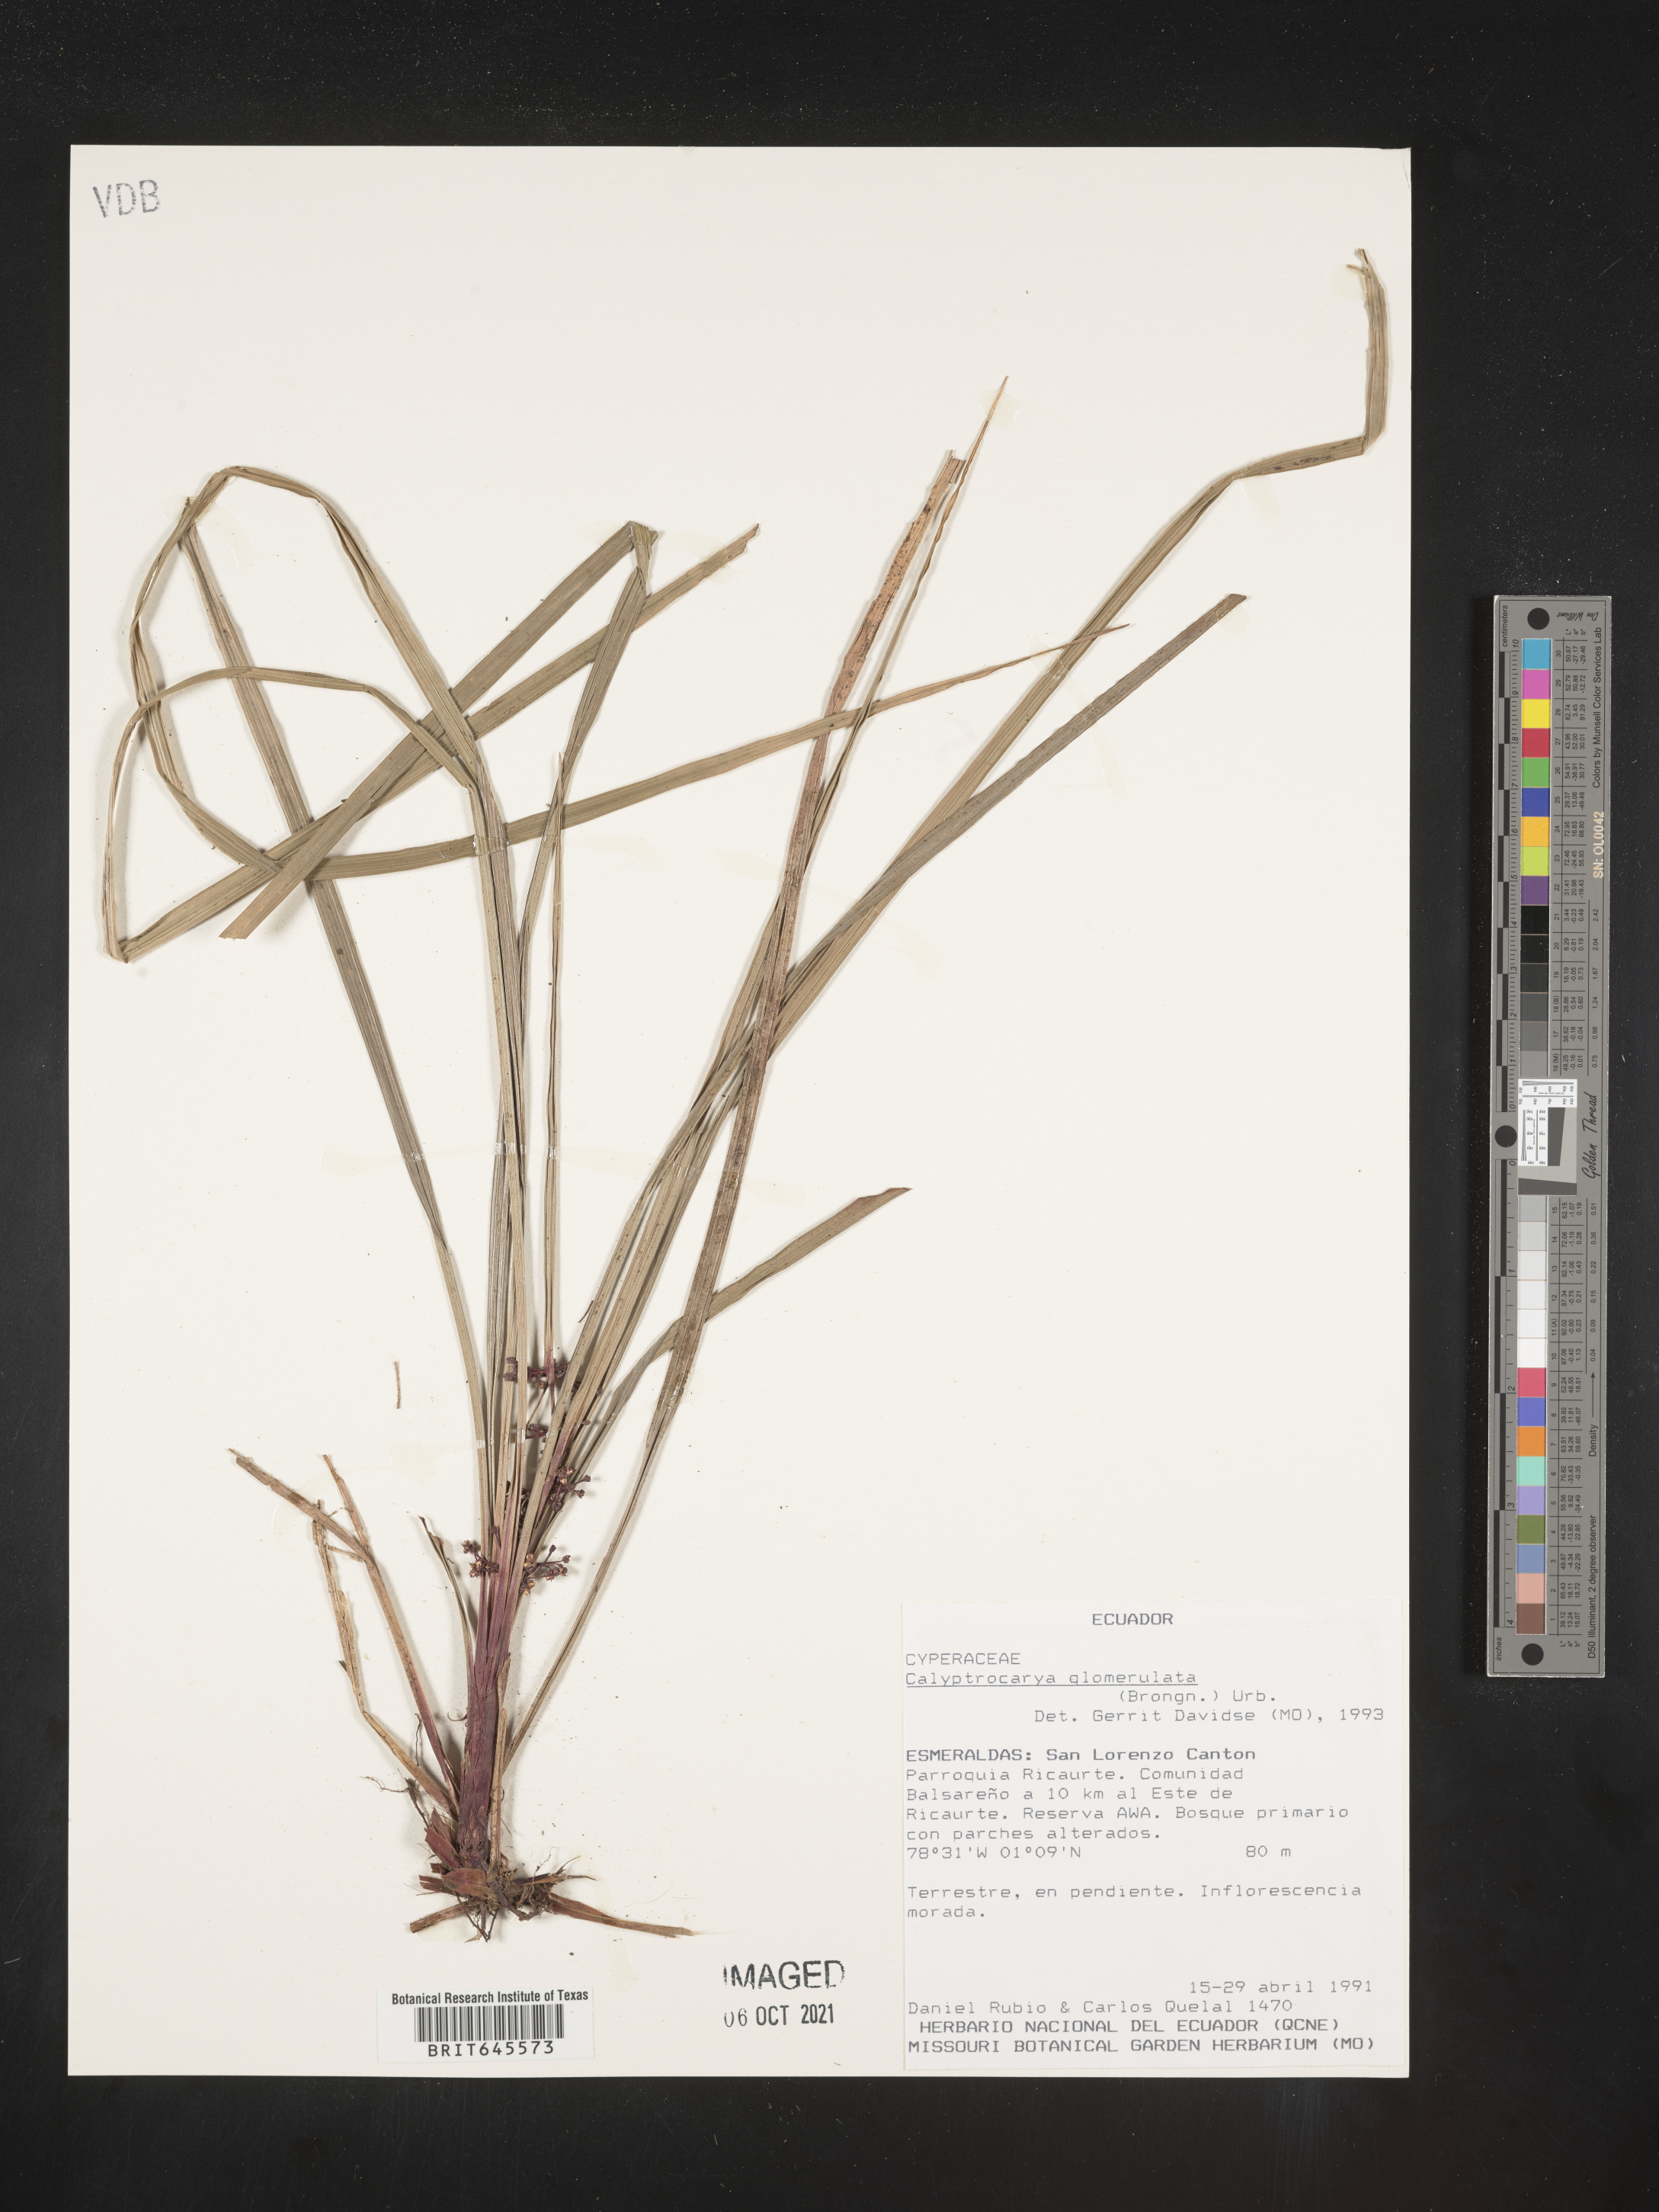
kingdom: Plantae
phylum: Tracheophyta
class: Liliopsida
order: Poales
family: Cyperaceae
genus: Calyptrocarya
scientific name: Calyptrocarya glomerulata
